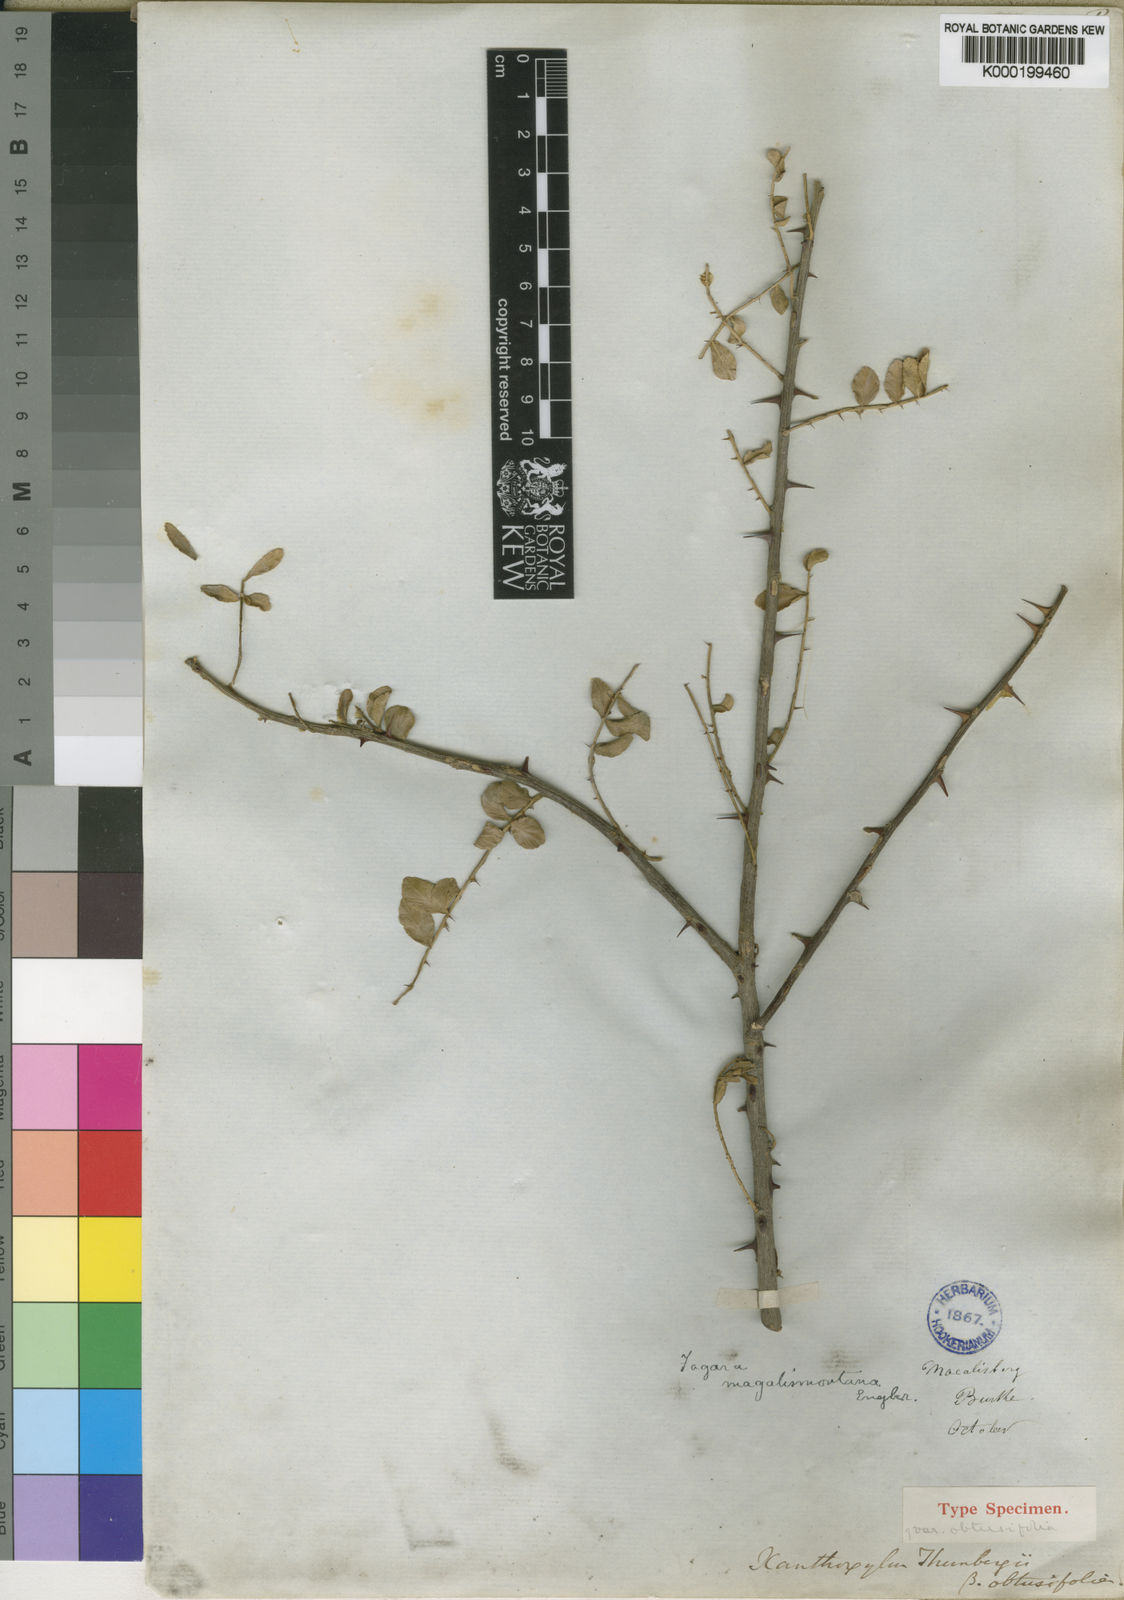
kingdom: Plantae
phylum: Tracheophyta
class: Magnoliopsida
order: Sapindales
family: Rutaceae
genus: Zanthoxylum
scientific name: Zanthoxylum capense
